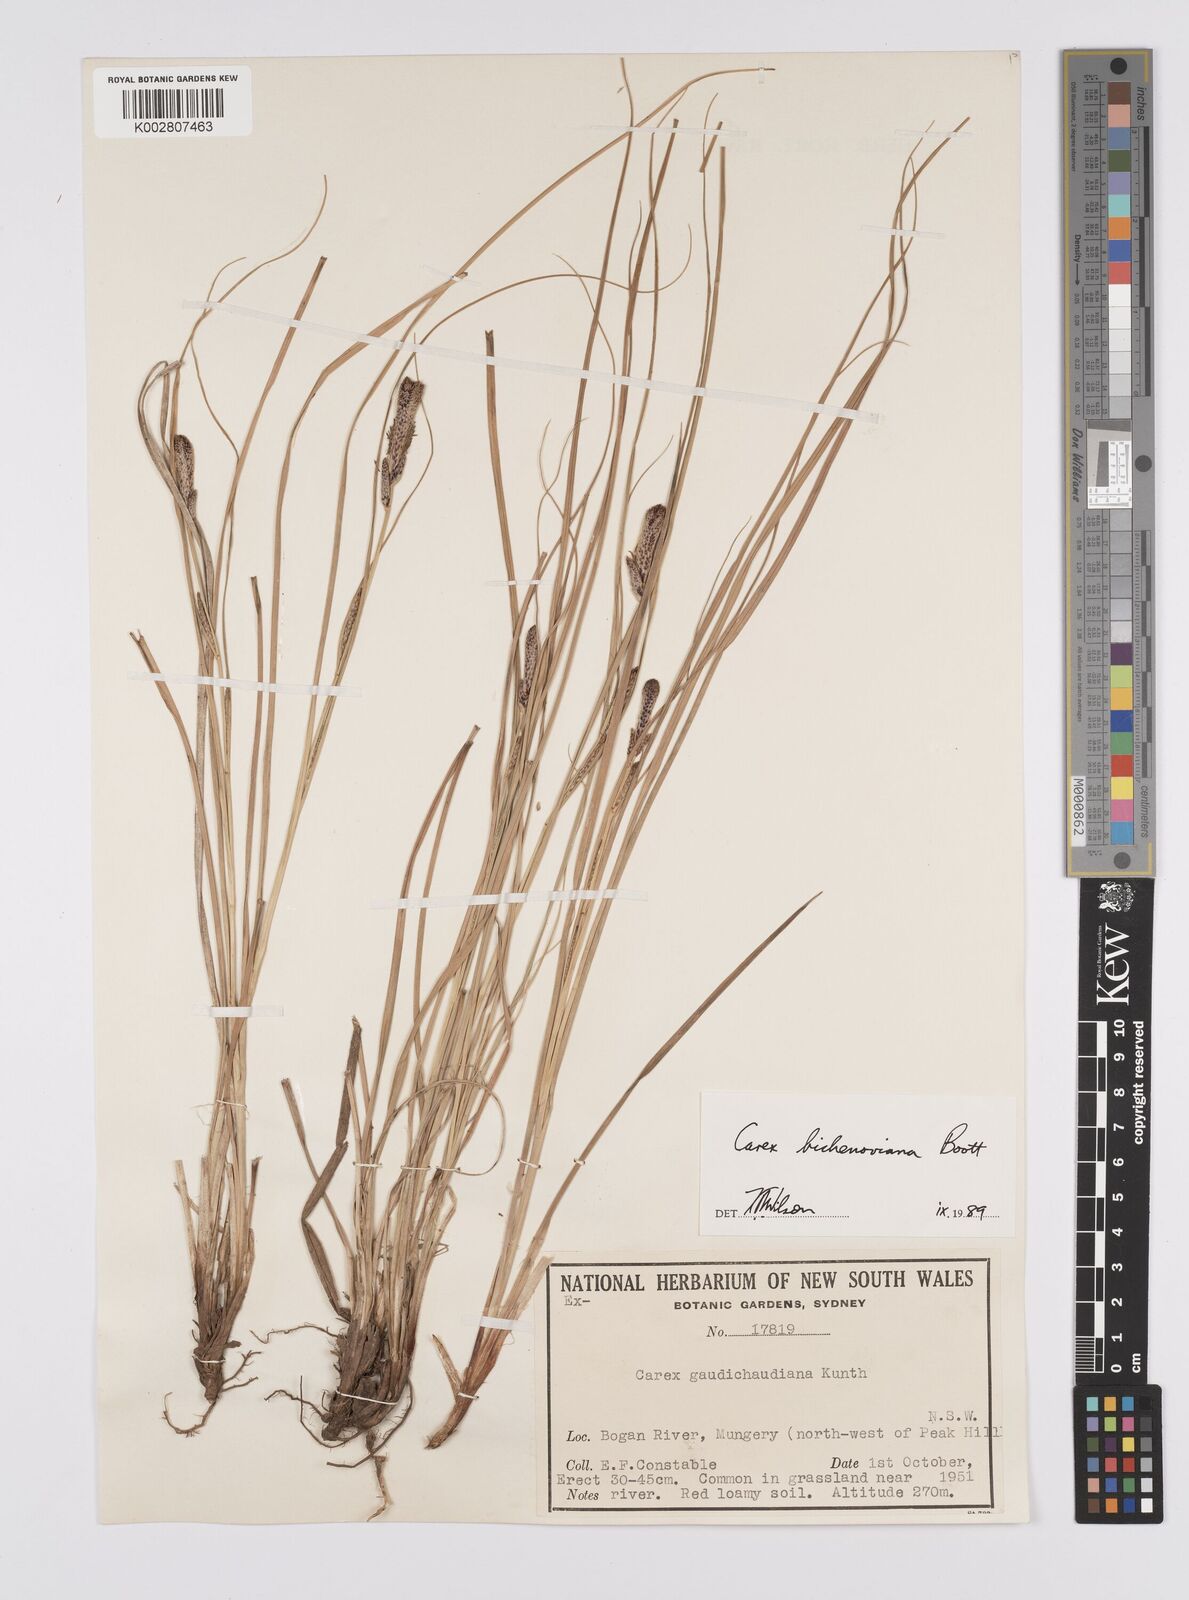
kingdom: Plantae
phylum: Tracheophyta
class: Liliopsida
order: Poales
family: Cyperaceae
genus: Carex
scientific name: Carex bichenoviana
